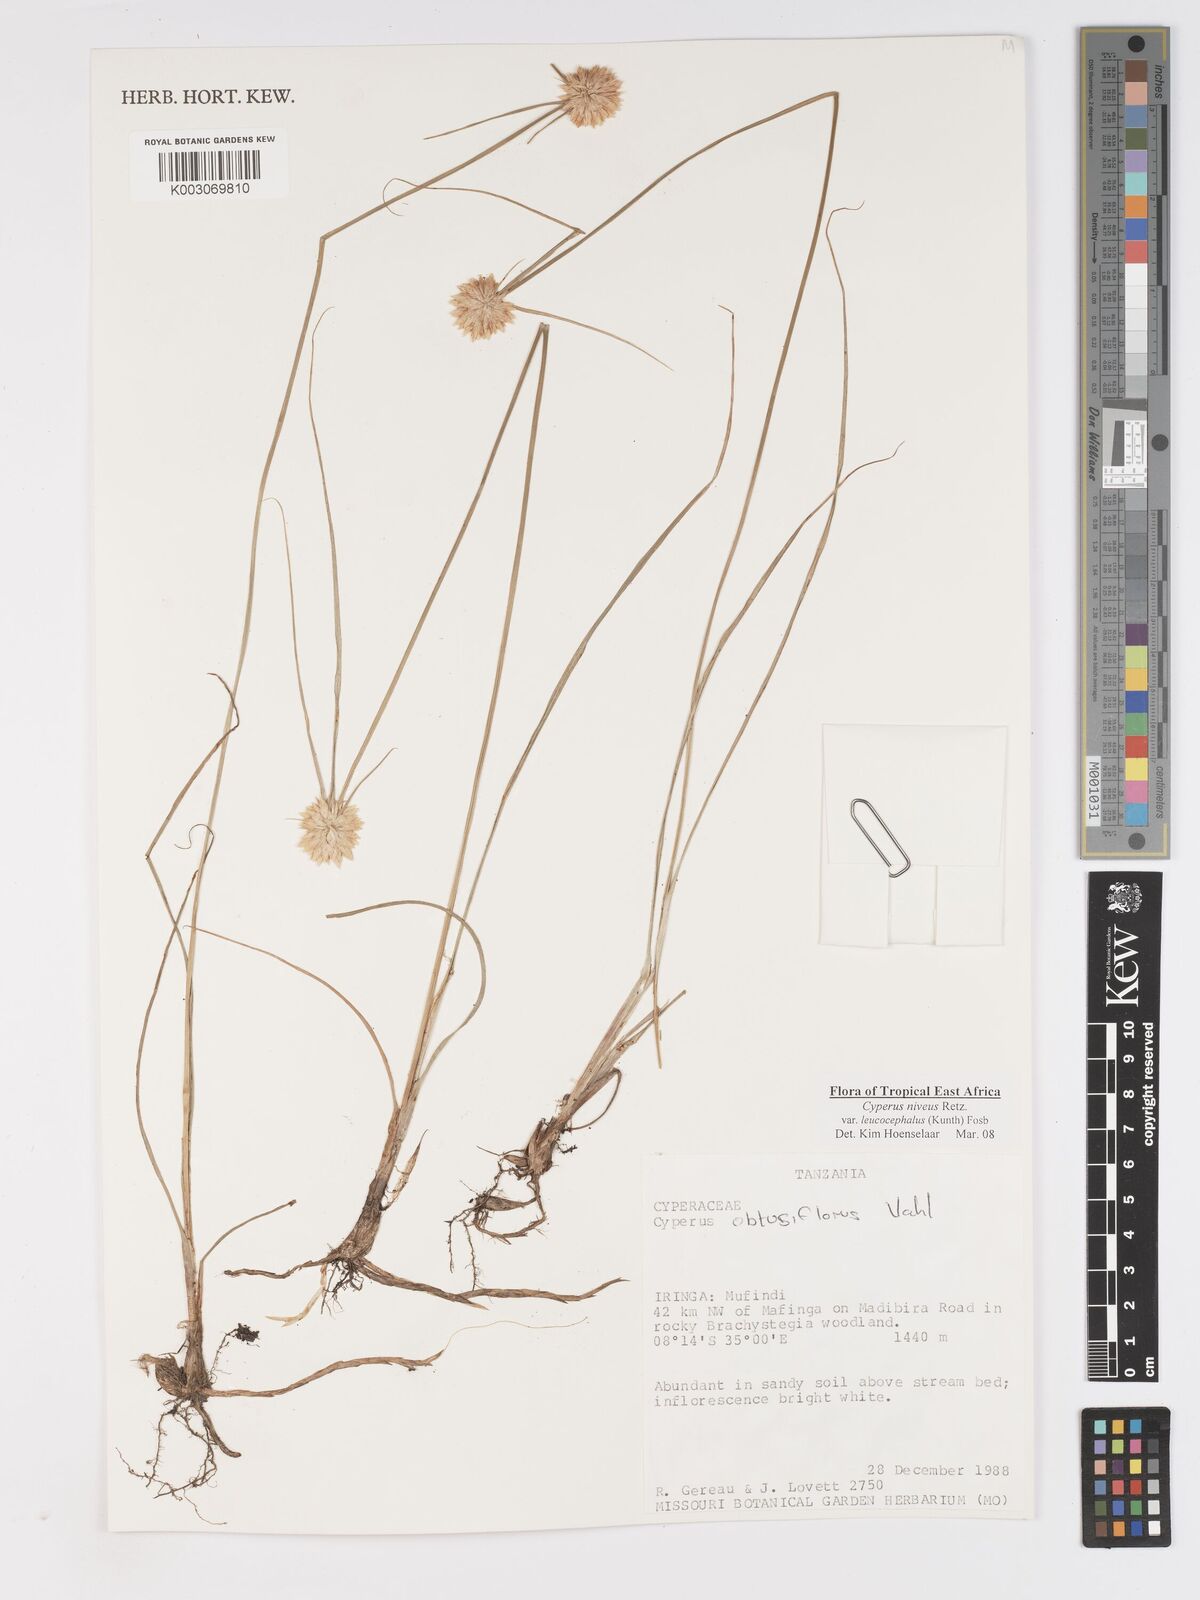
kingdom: Plantae
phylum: Tracheophyta
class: Liliopsida
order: Poales
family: Cyperaceae
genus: Cyperus
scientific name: Cyperus niveus
